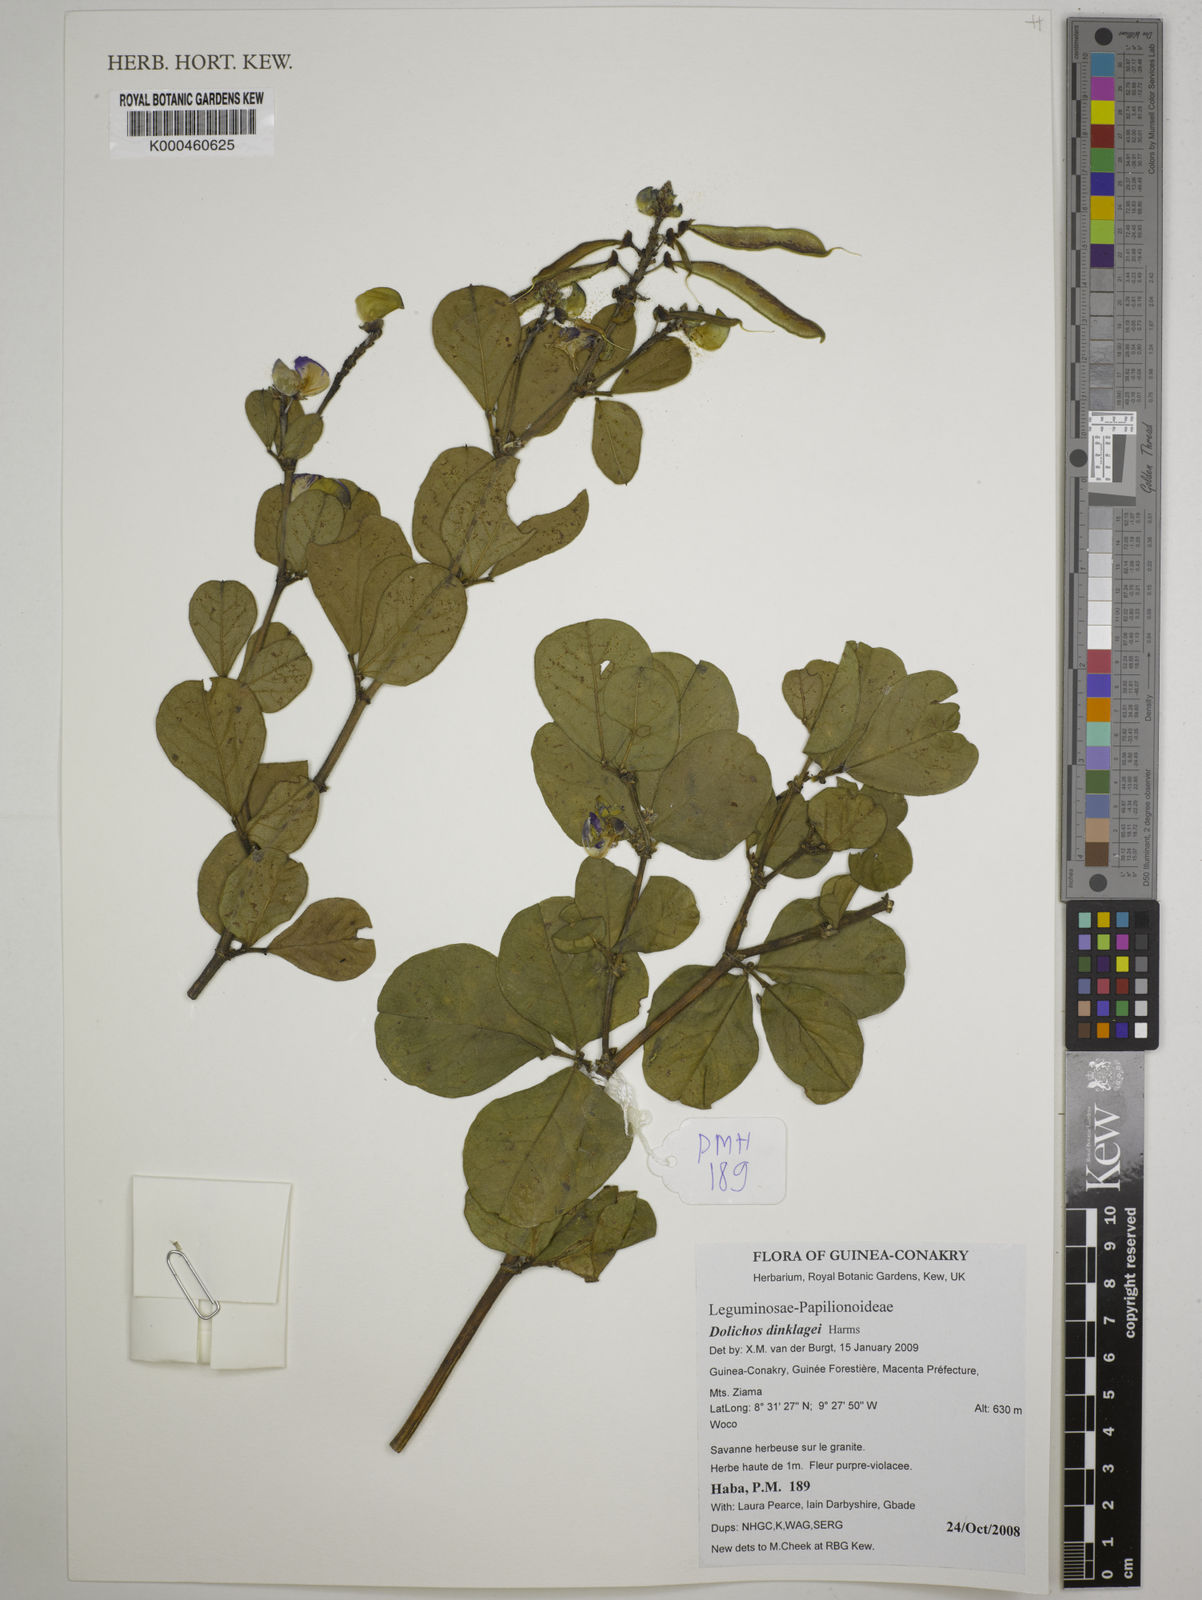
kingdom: Plantae
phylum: Tracheophyta
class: Magnoliopsida
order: Fabales
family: Fabaceae
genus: Dolichos
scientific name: Dolichos dinklagei
